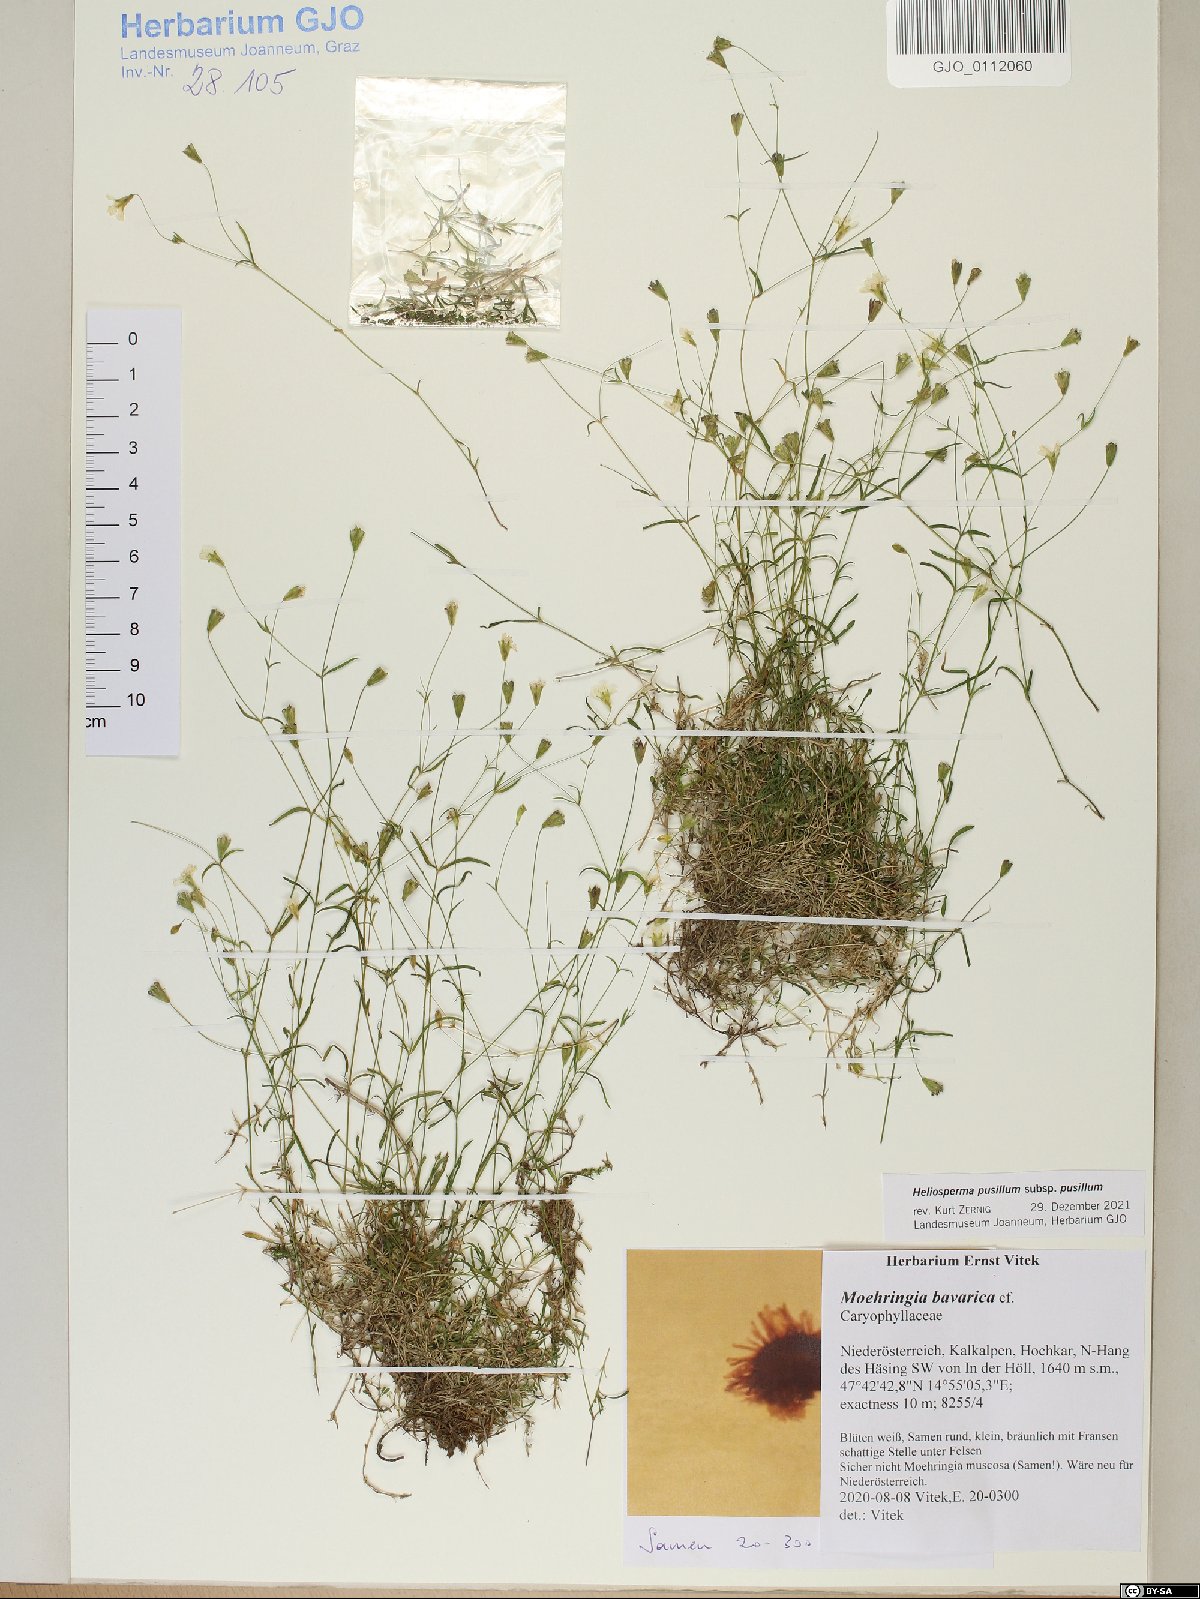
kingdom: Plantae
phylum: Tracheophyta
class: Magnoliopsida
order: Caryophyllales
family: Caryophyllaceae
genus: Heliosperma
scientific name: Heliosperma pusillum
